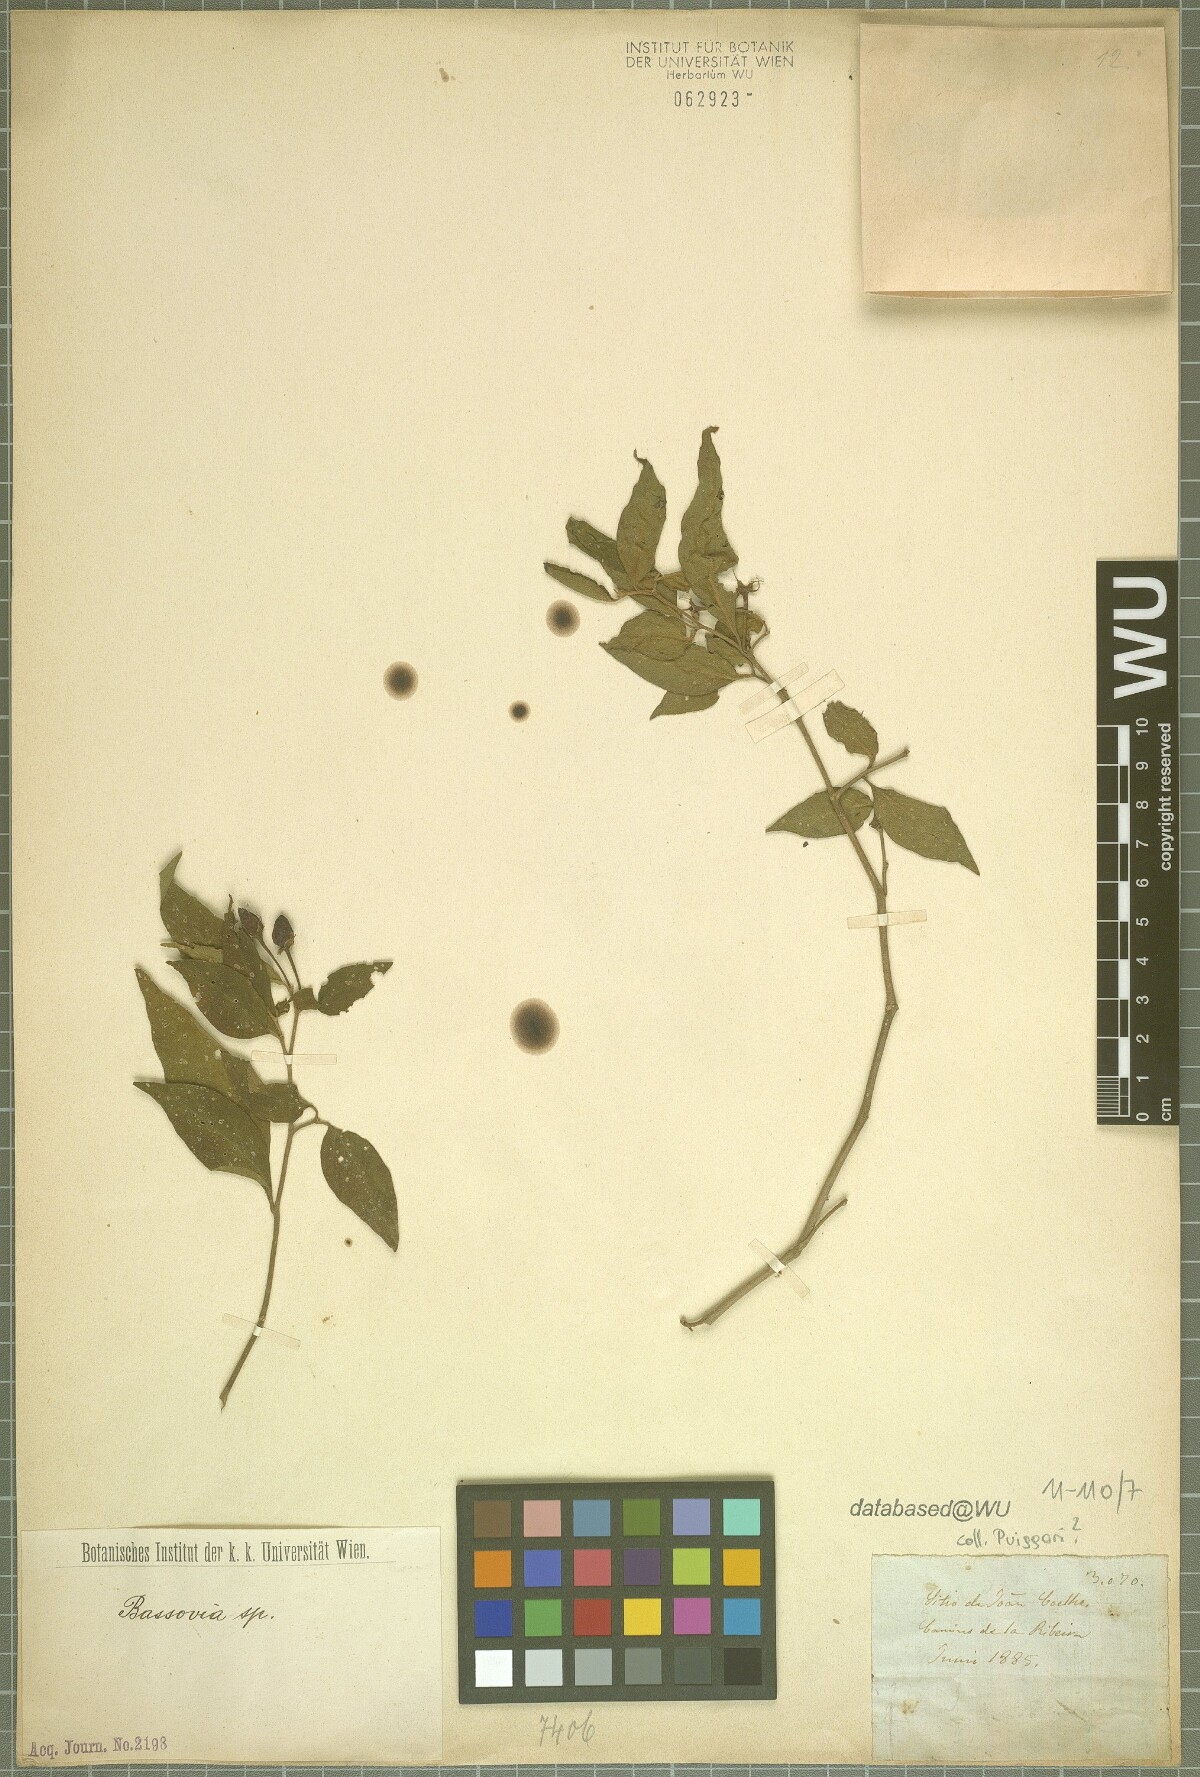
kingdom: Plantae
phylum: Tracheophyta
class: Magnoliopsida
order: Solanales
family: Solanaceae
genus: Solanum
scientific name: Solanum
